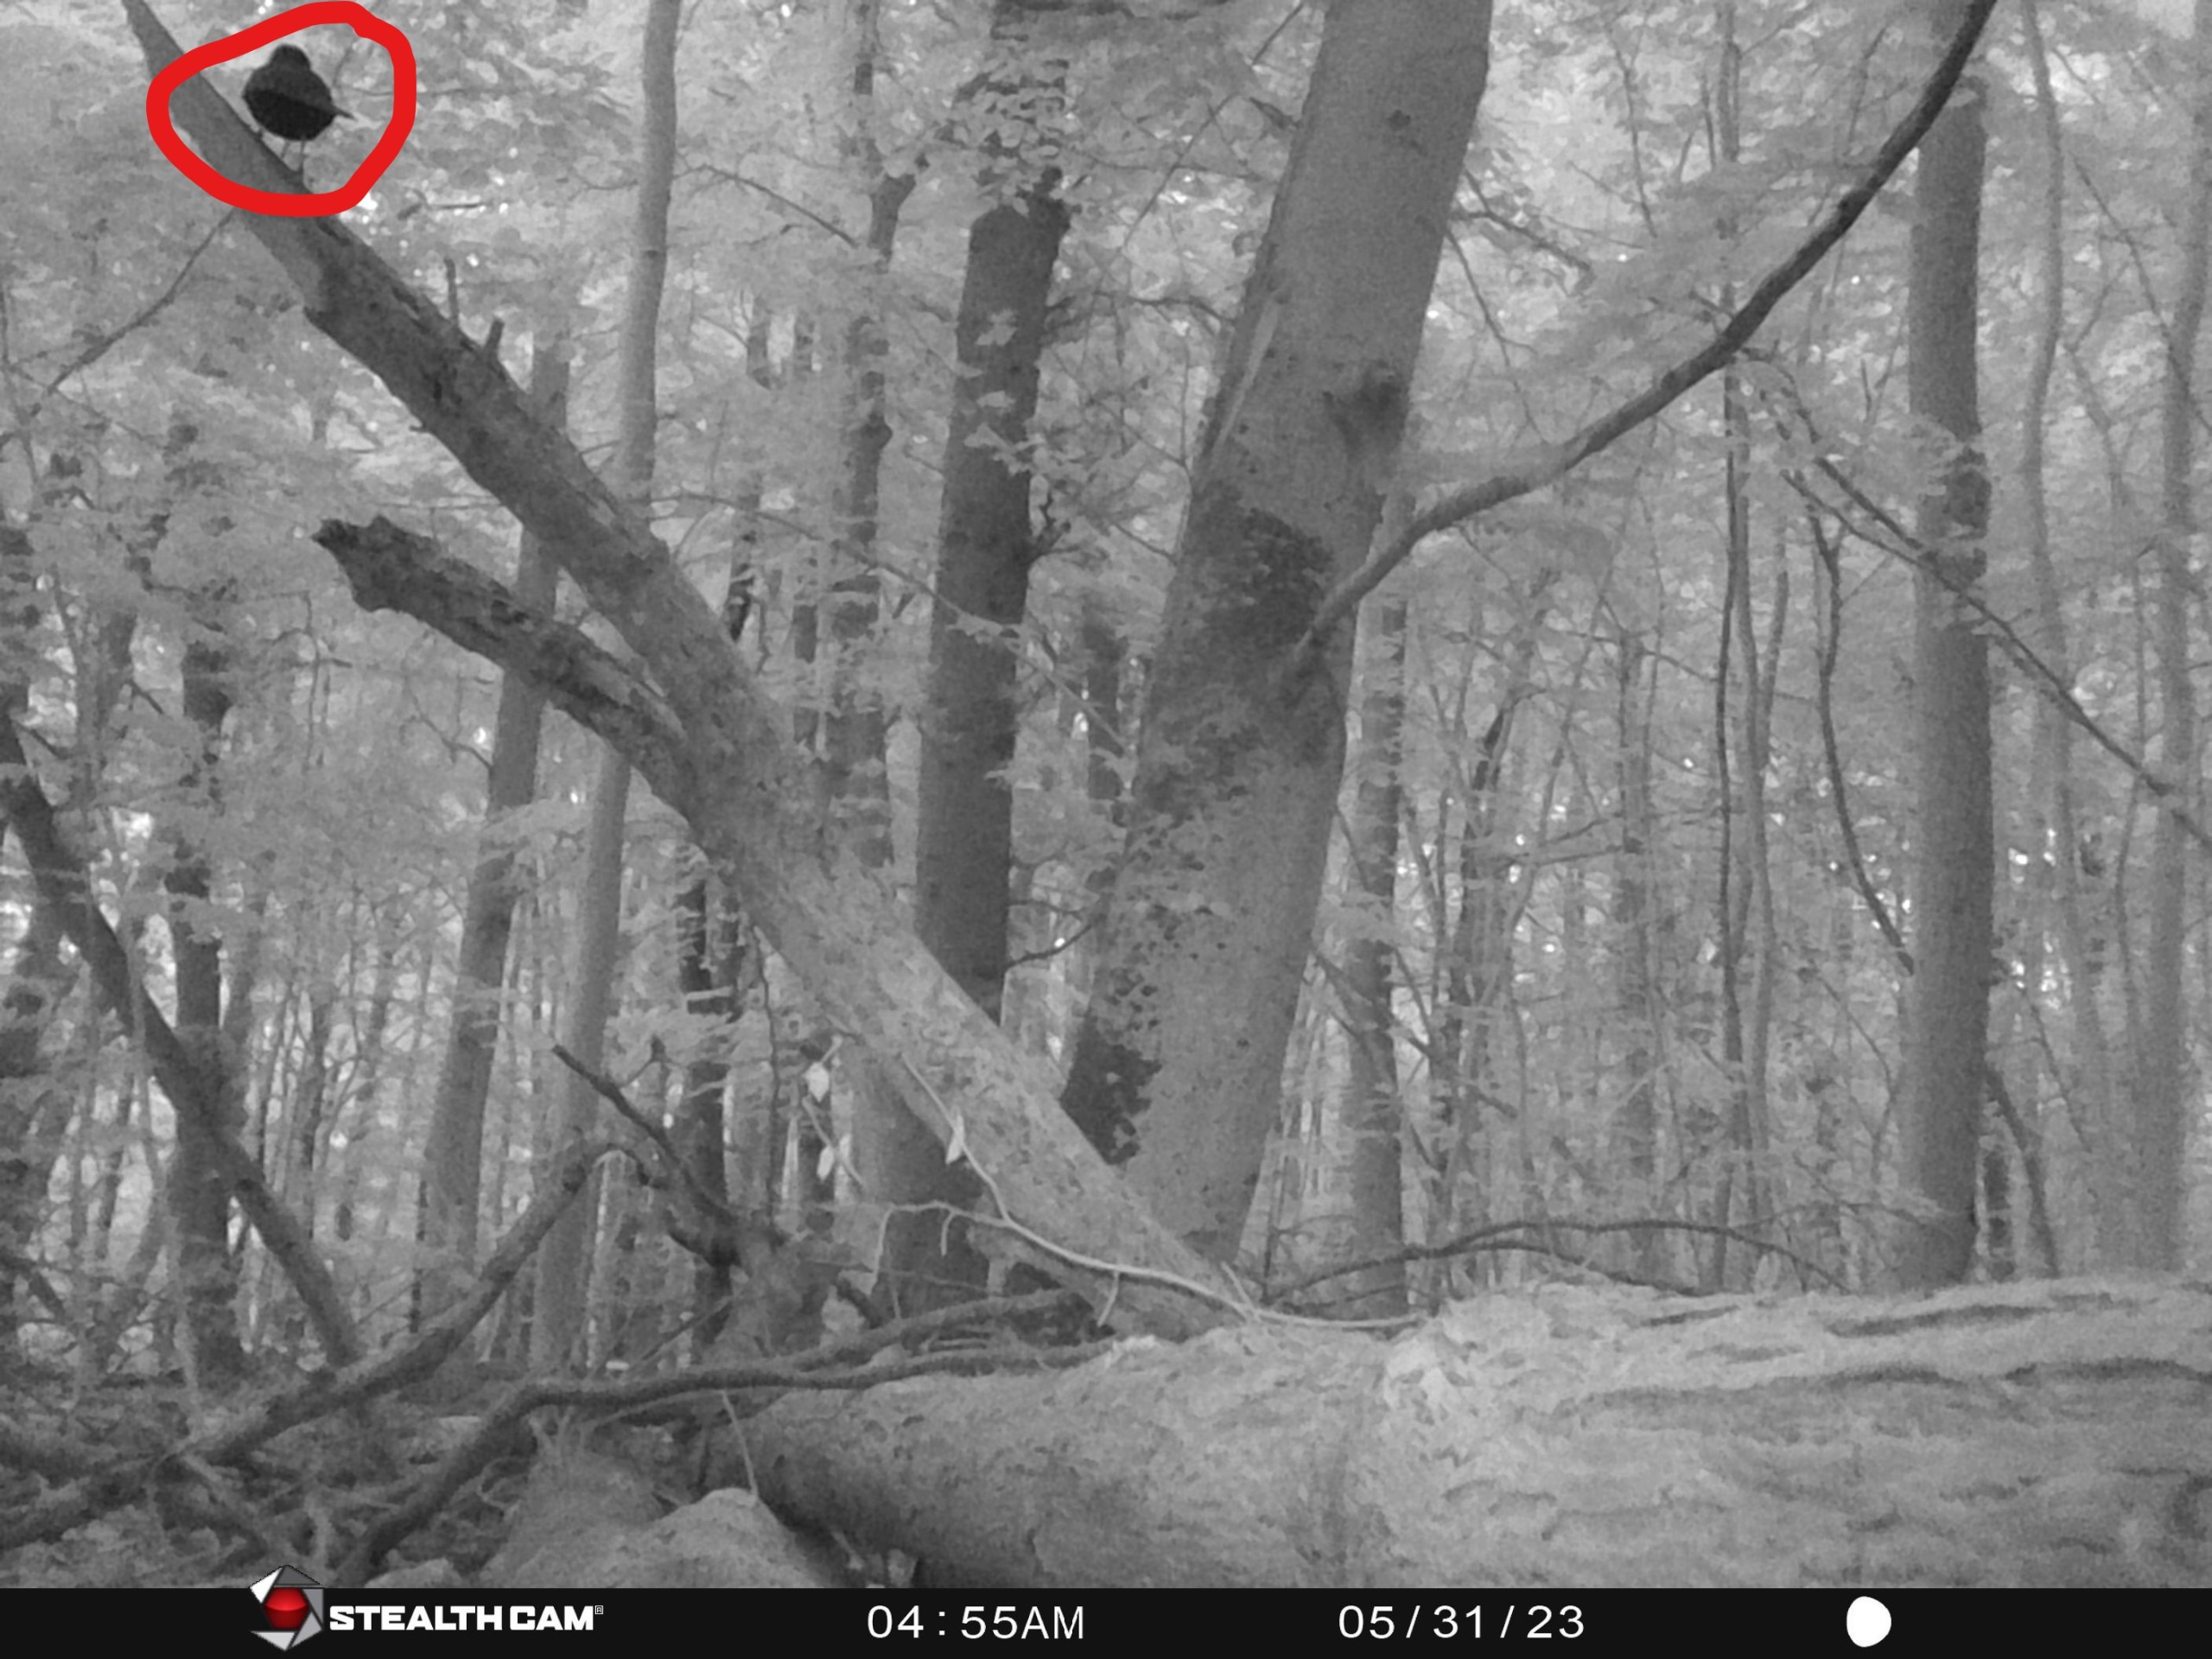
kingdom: Animalia
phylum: Chordata
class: Aves
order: Passeriformes
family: Turdidae
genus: Turdus
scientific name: Turdus merula
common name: Solsort
